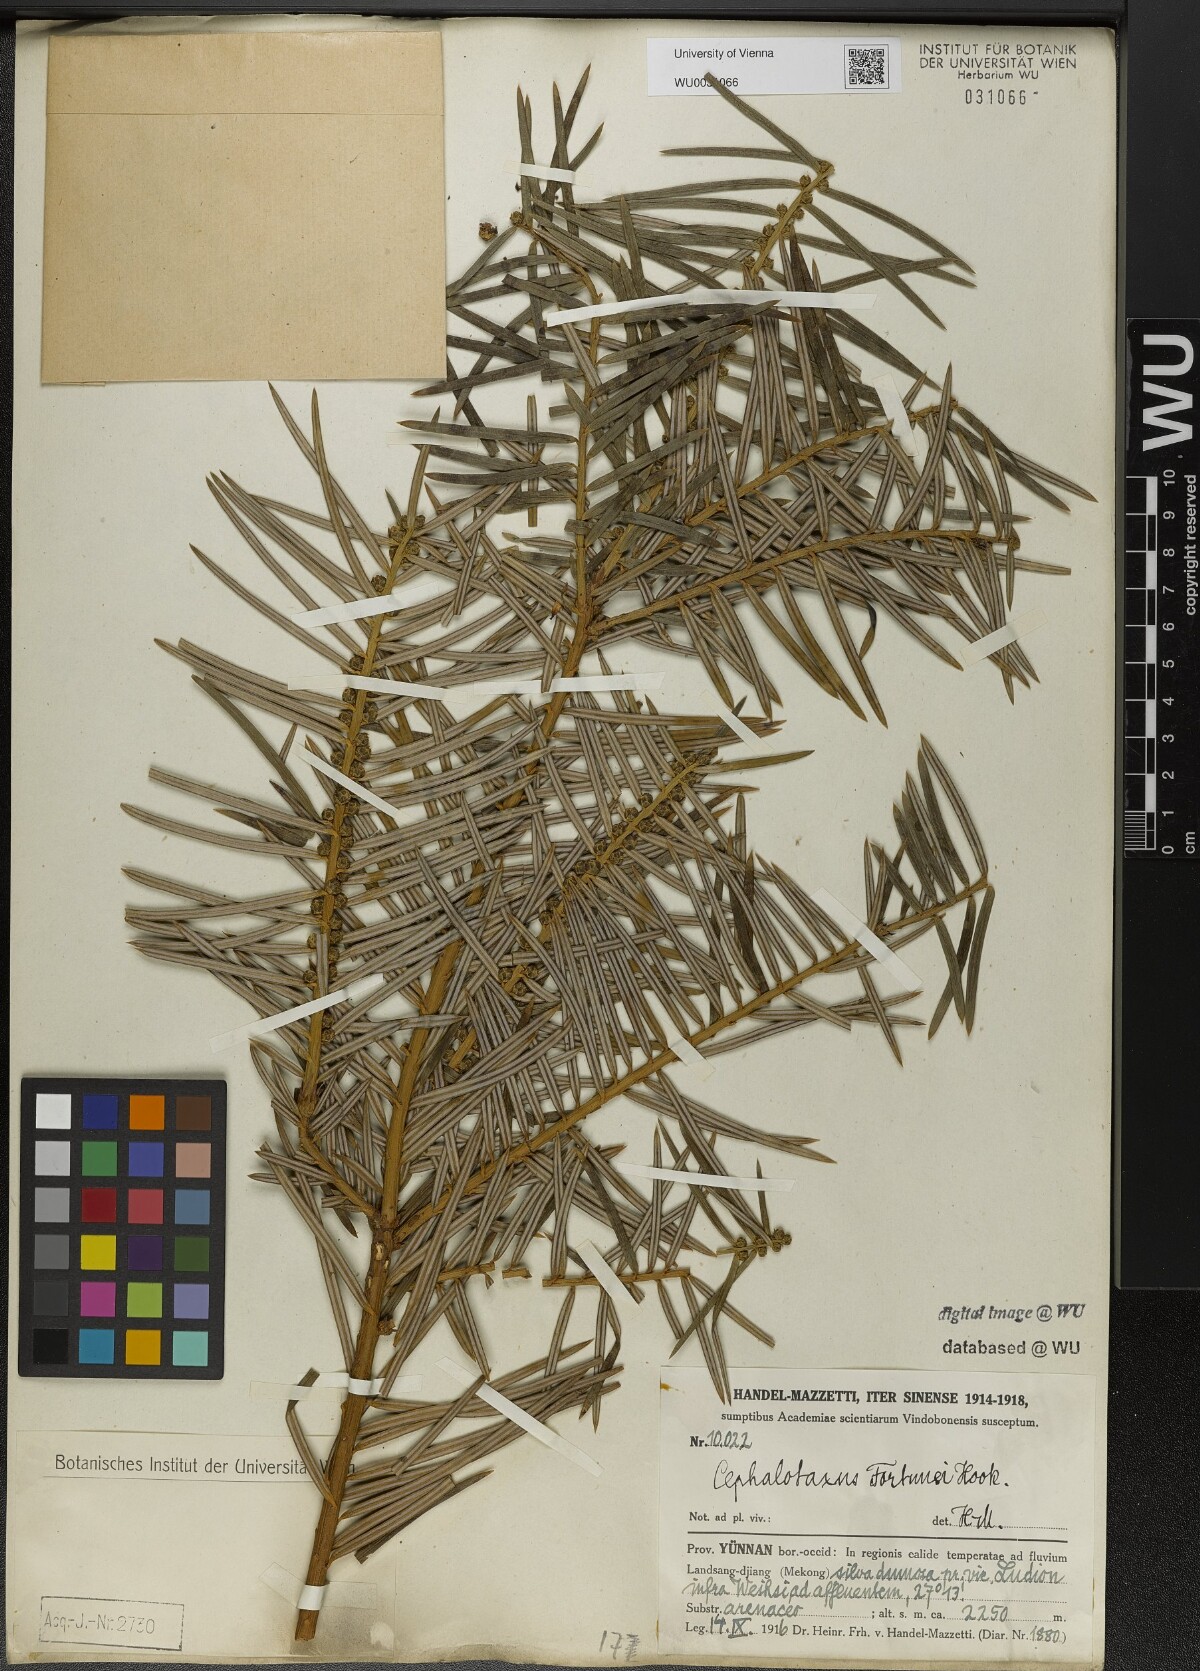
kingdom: Plantae
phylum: Tracheophyta
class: Pinopsida
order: Pinales
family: Cephalotaxaceae
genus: Cephalotaxus
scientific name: Cephalotaxus fortunei
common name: Chinese plum-yew
